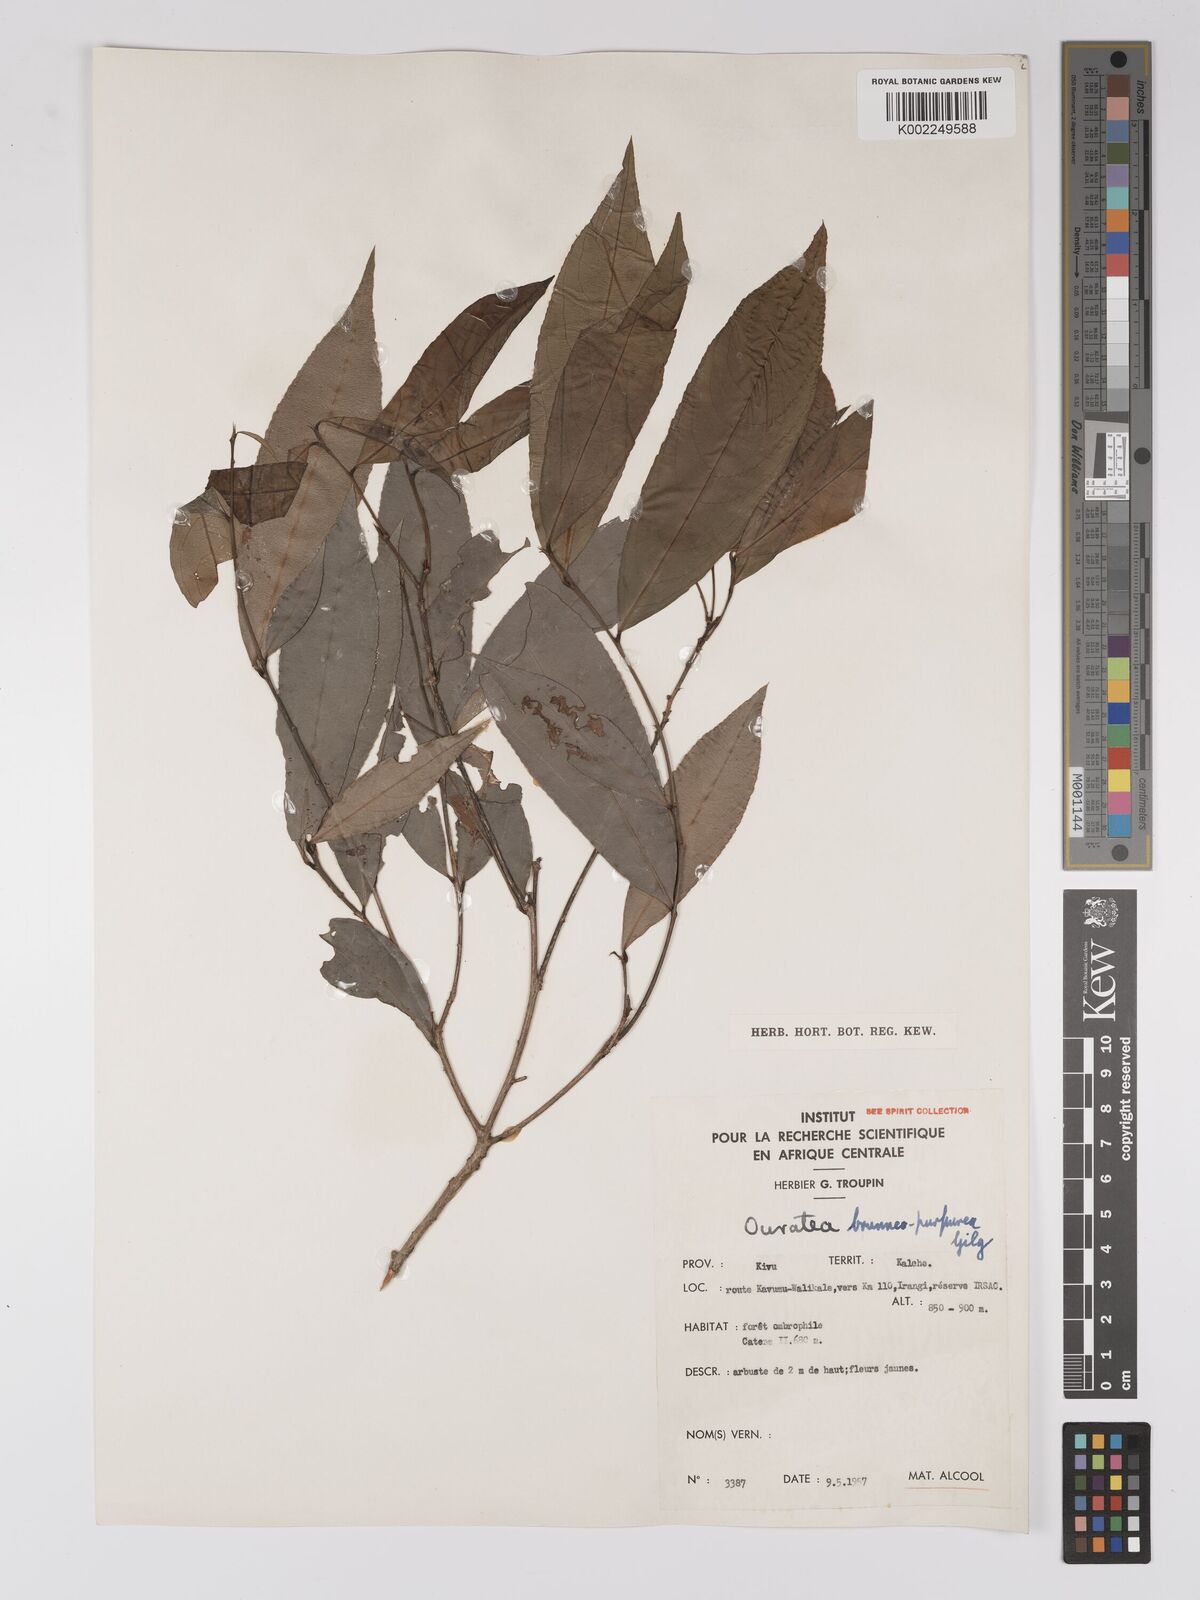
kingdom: Plantae
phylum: Tracheophyta
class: Magnoliopsida
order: Malpighiales
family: Ochnaceae
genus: Campylospermum
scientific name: Campylospermum reticulatum
